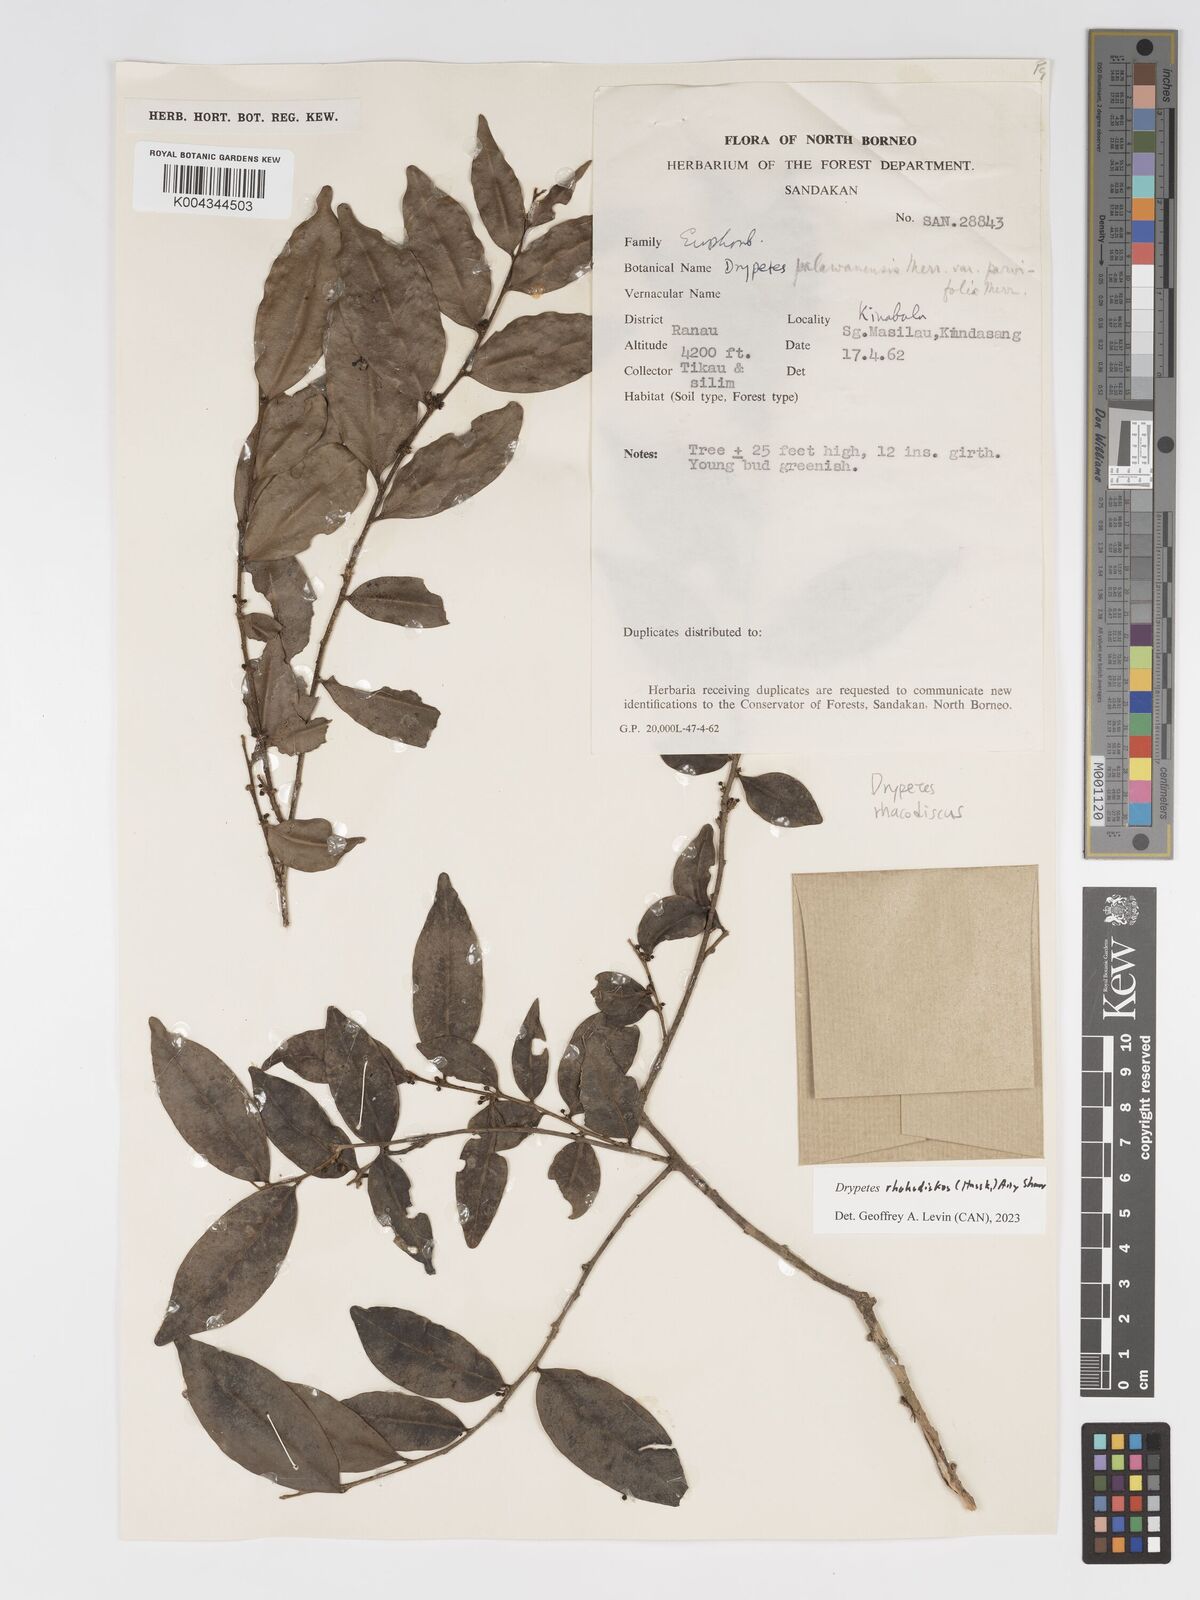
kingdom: Plantae
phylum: Tracheophyta
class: Magnoliopsida
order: Malpighiales
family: Putranjivaceae
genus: Drypetes
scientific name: Drypetes rhakodiskos
